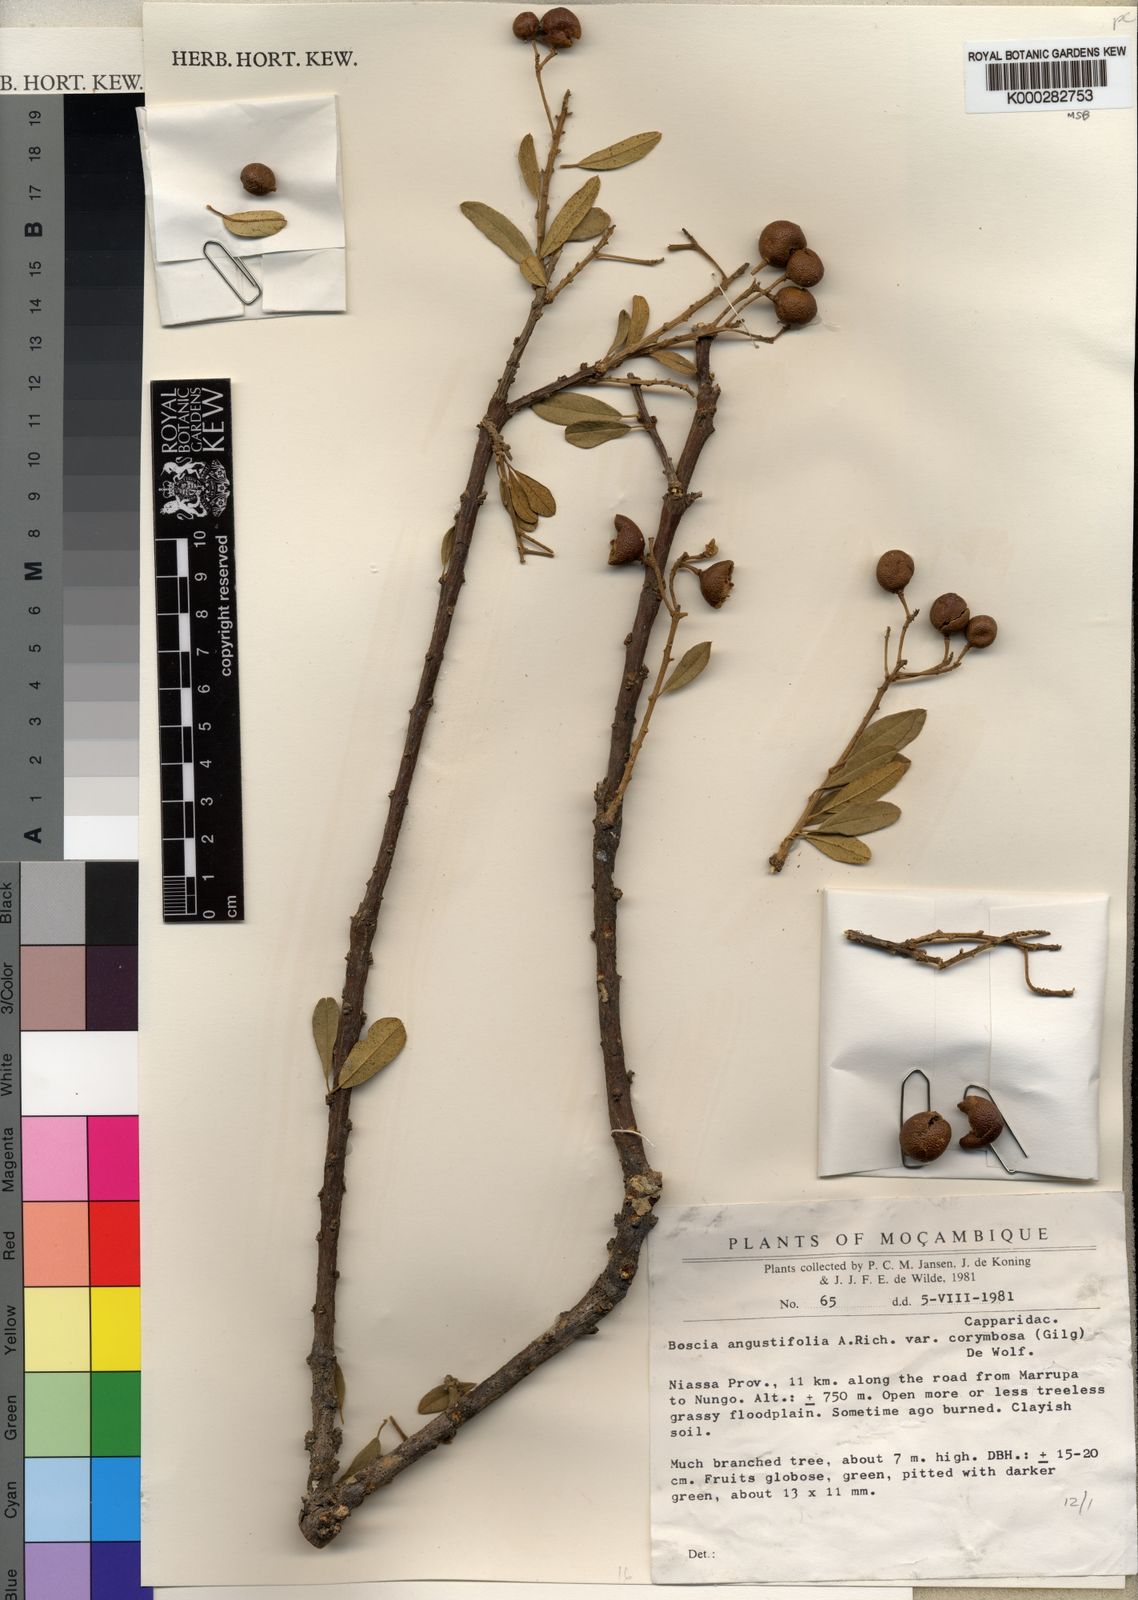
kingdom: Plantae
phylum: Tracheophyta
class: Magnoliopsida
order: Brassicales
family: Capparaceae
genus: Boscia
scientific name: Boscia
